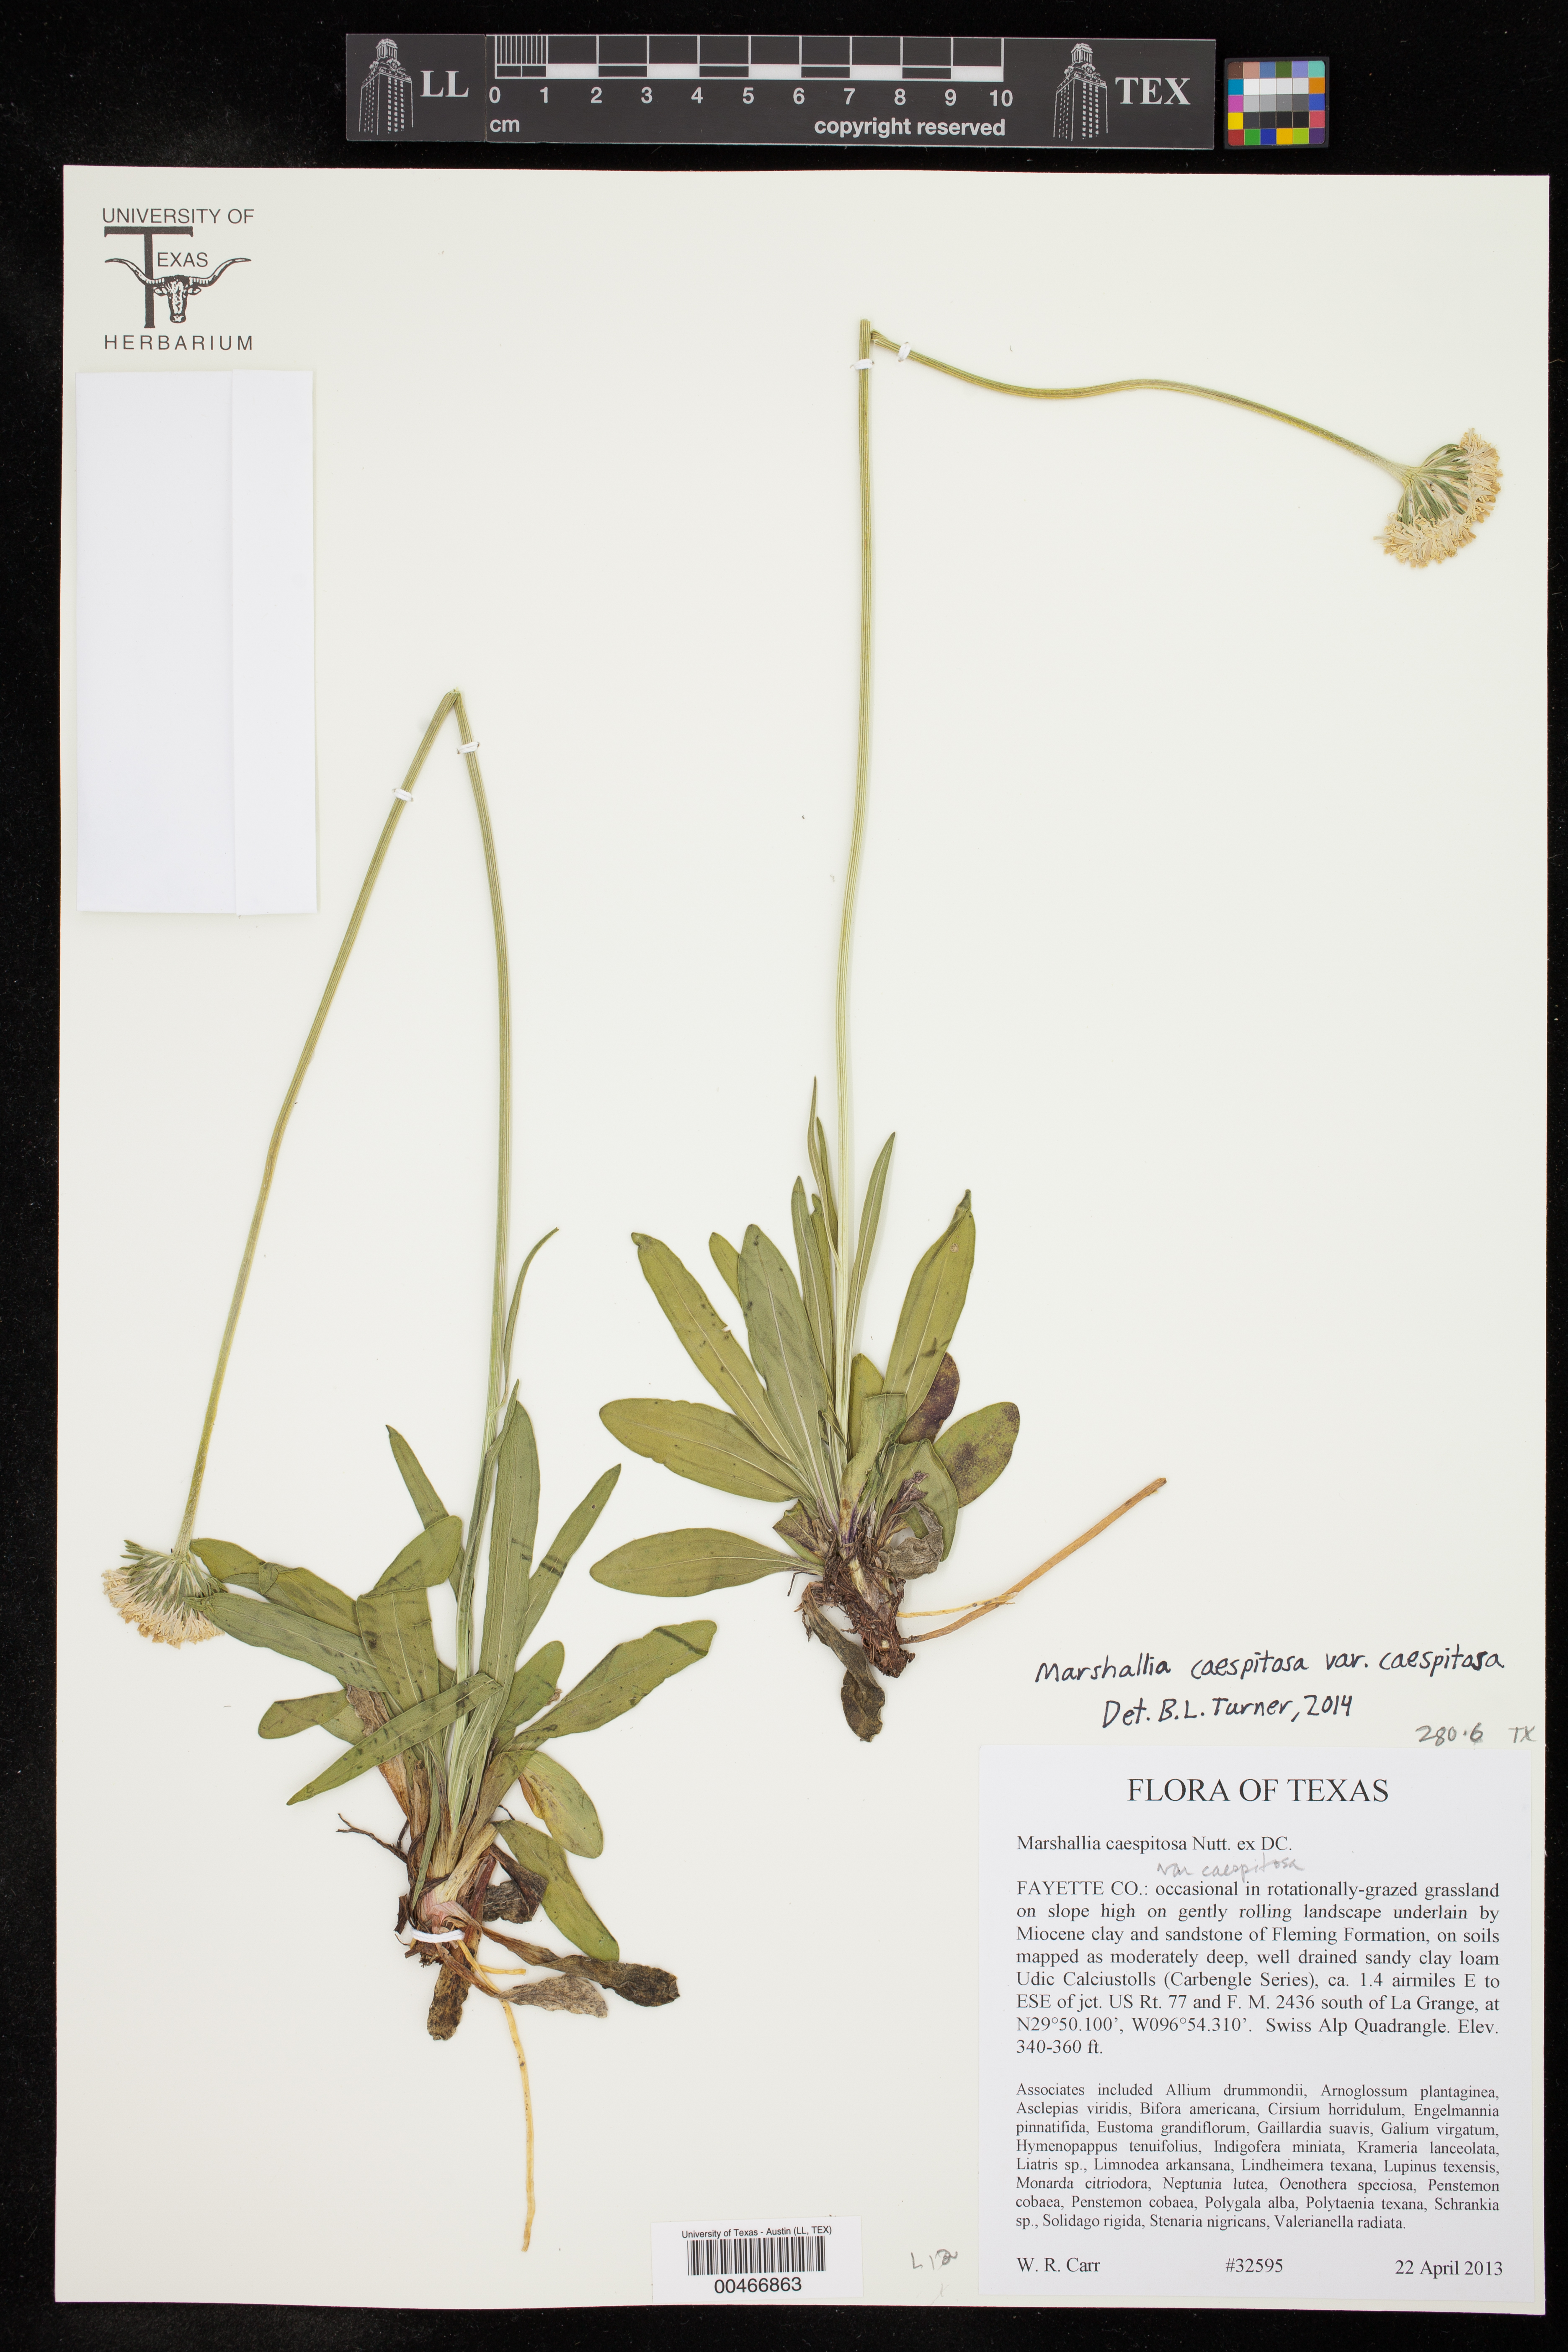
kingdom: Plantae
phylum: Tracheophyta
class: Magnoliopsida
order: Asterales
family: Asteraceae
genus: Marshallia
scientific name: Marshallia caespitosa
